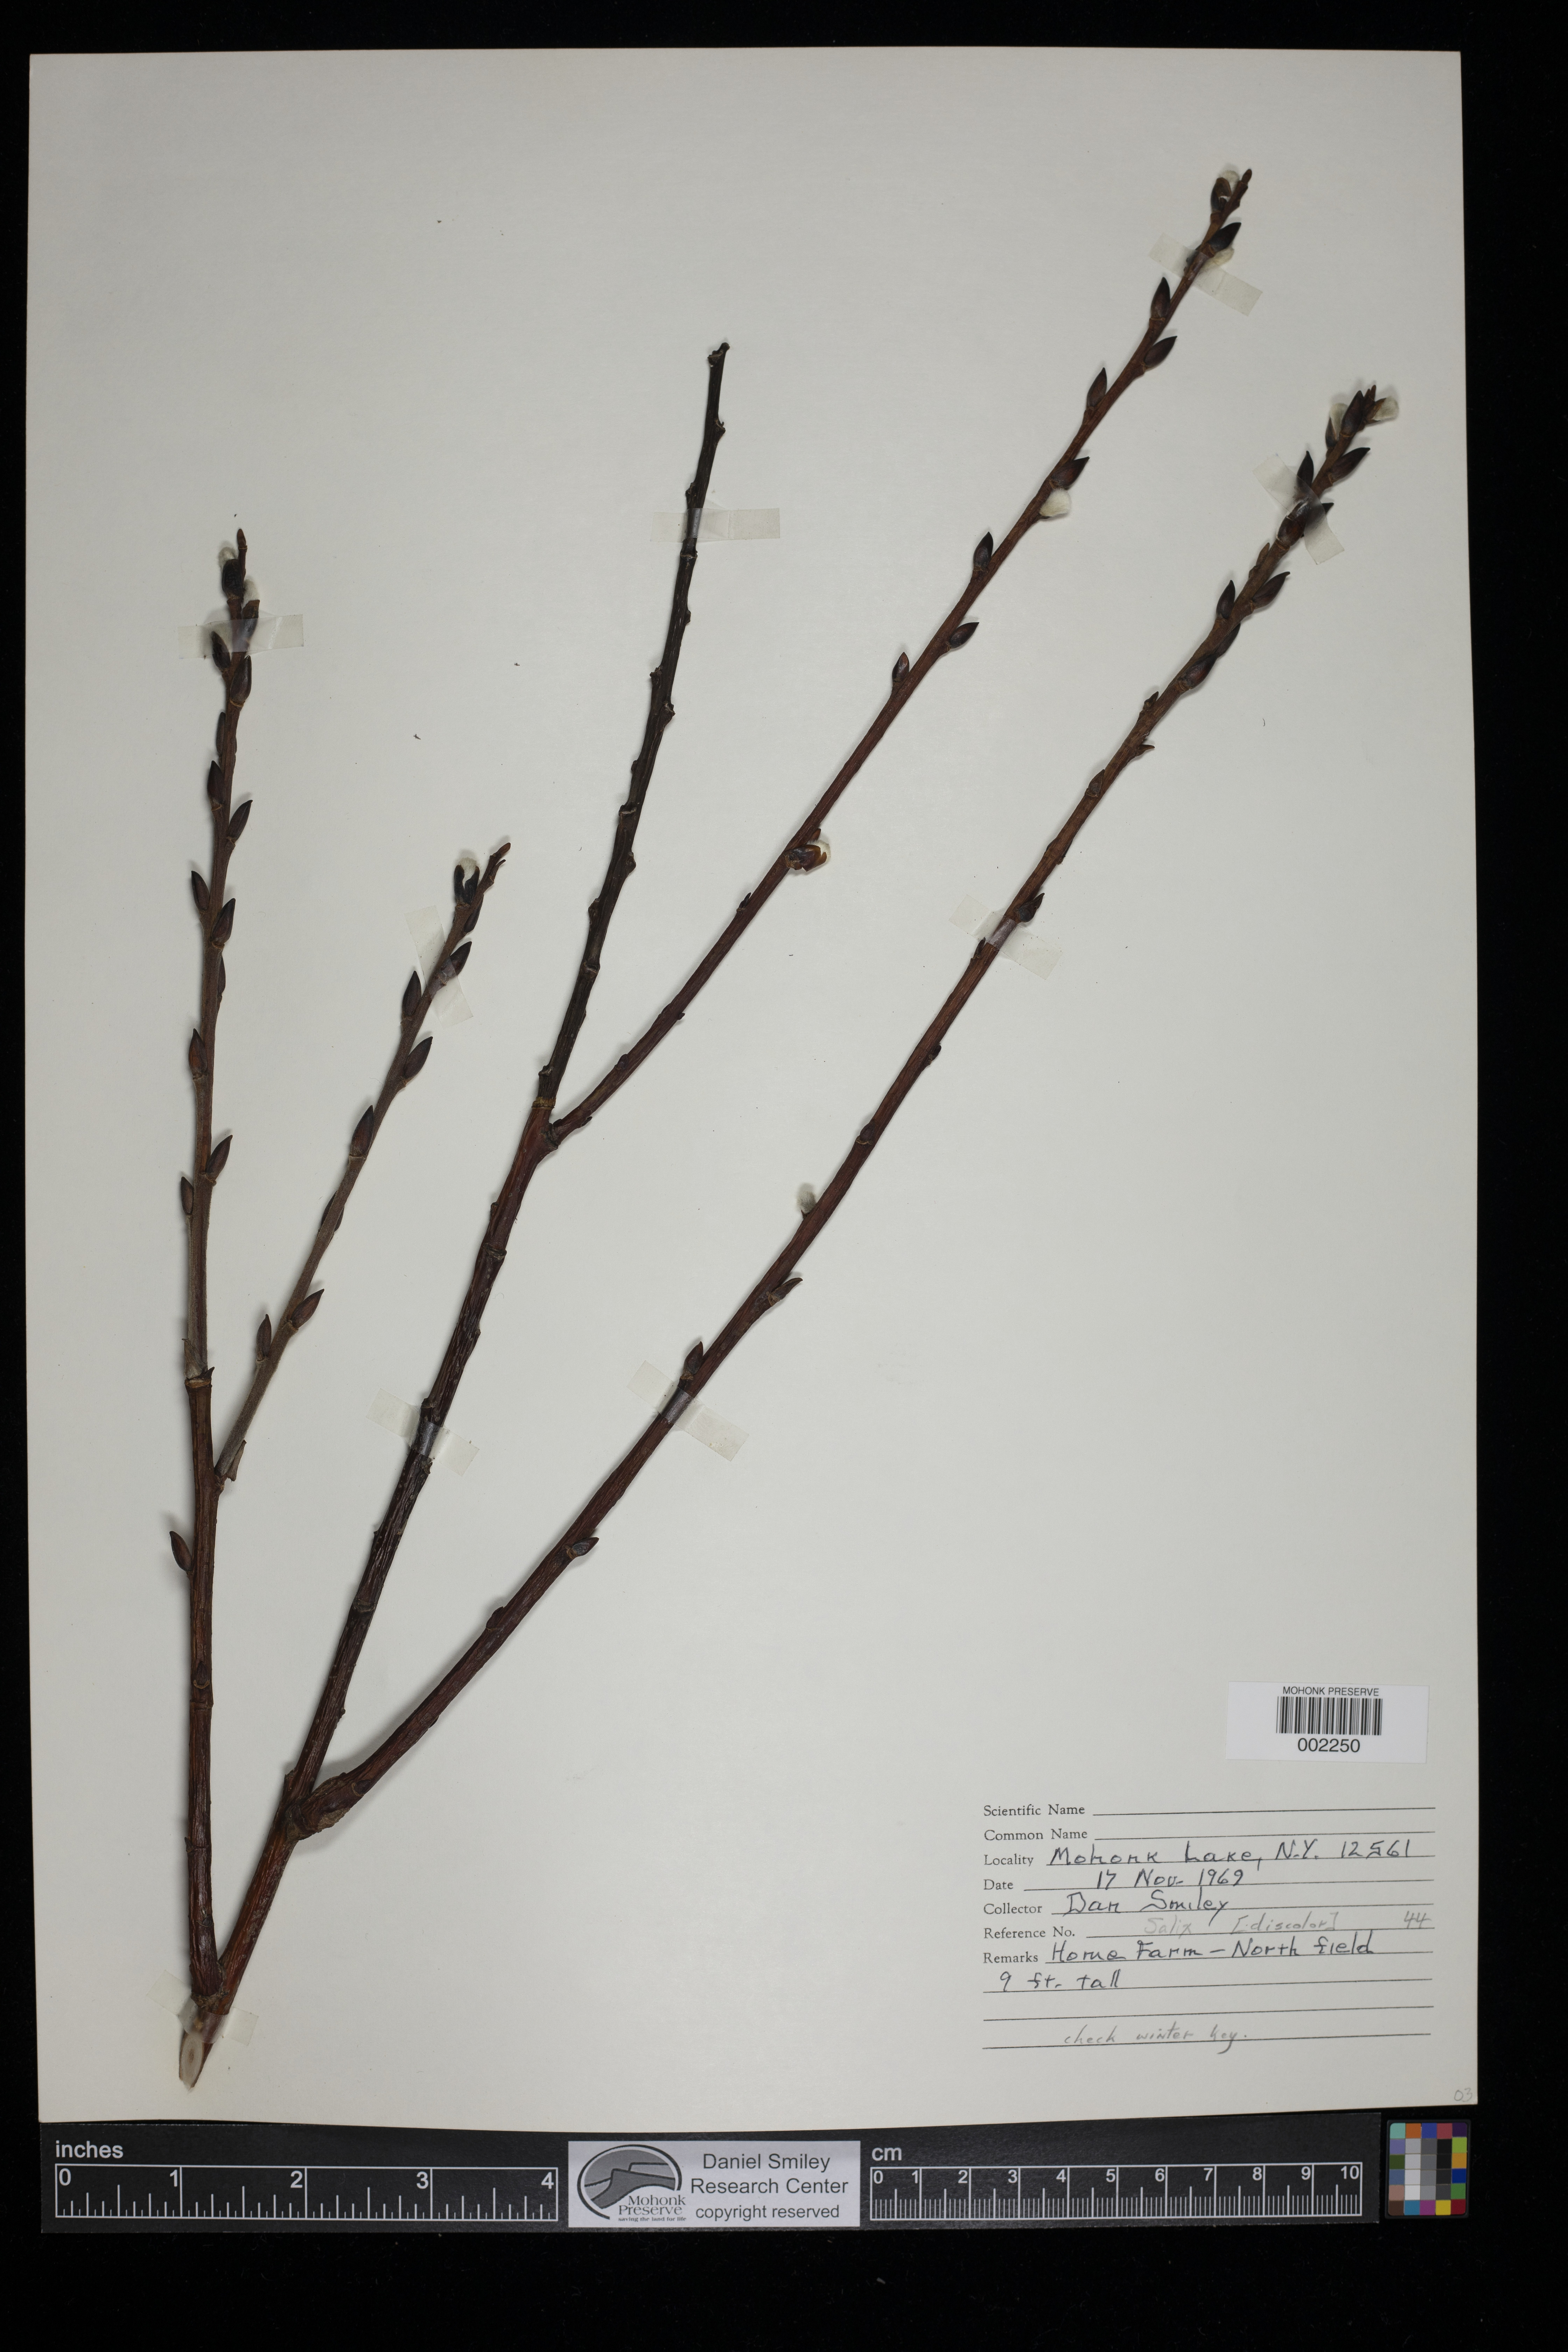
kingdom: Plantae
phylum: Tracheophyta
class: Magnoliopsida
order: Malpighiales
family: Salicaceae
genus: Salix
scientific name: Salix discolor
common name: Glaucous willow
